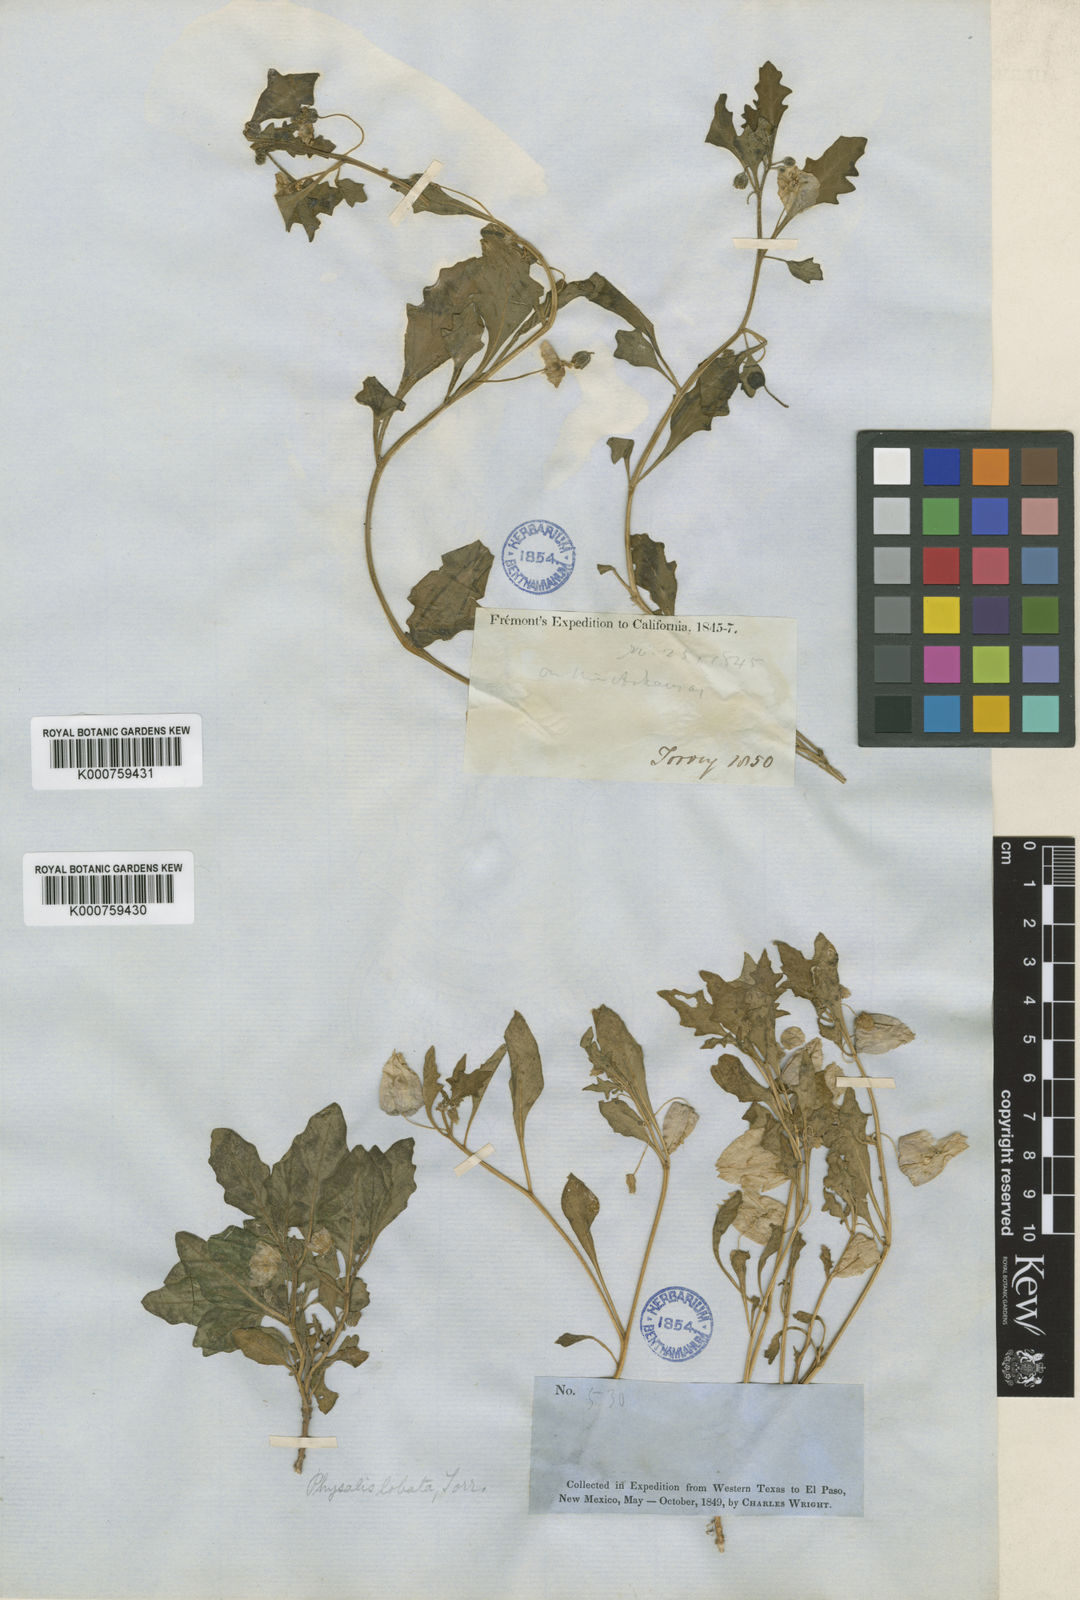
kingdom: Plantae
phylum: Tracheophyta
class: Magnoliopsida
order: Solanales
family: Solanaceae
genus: Quincula
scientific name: Quincula lobata
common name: Purple-ground-cherry
